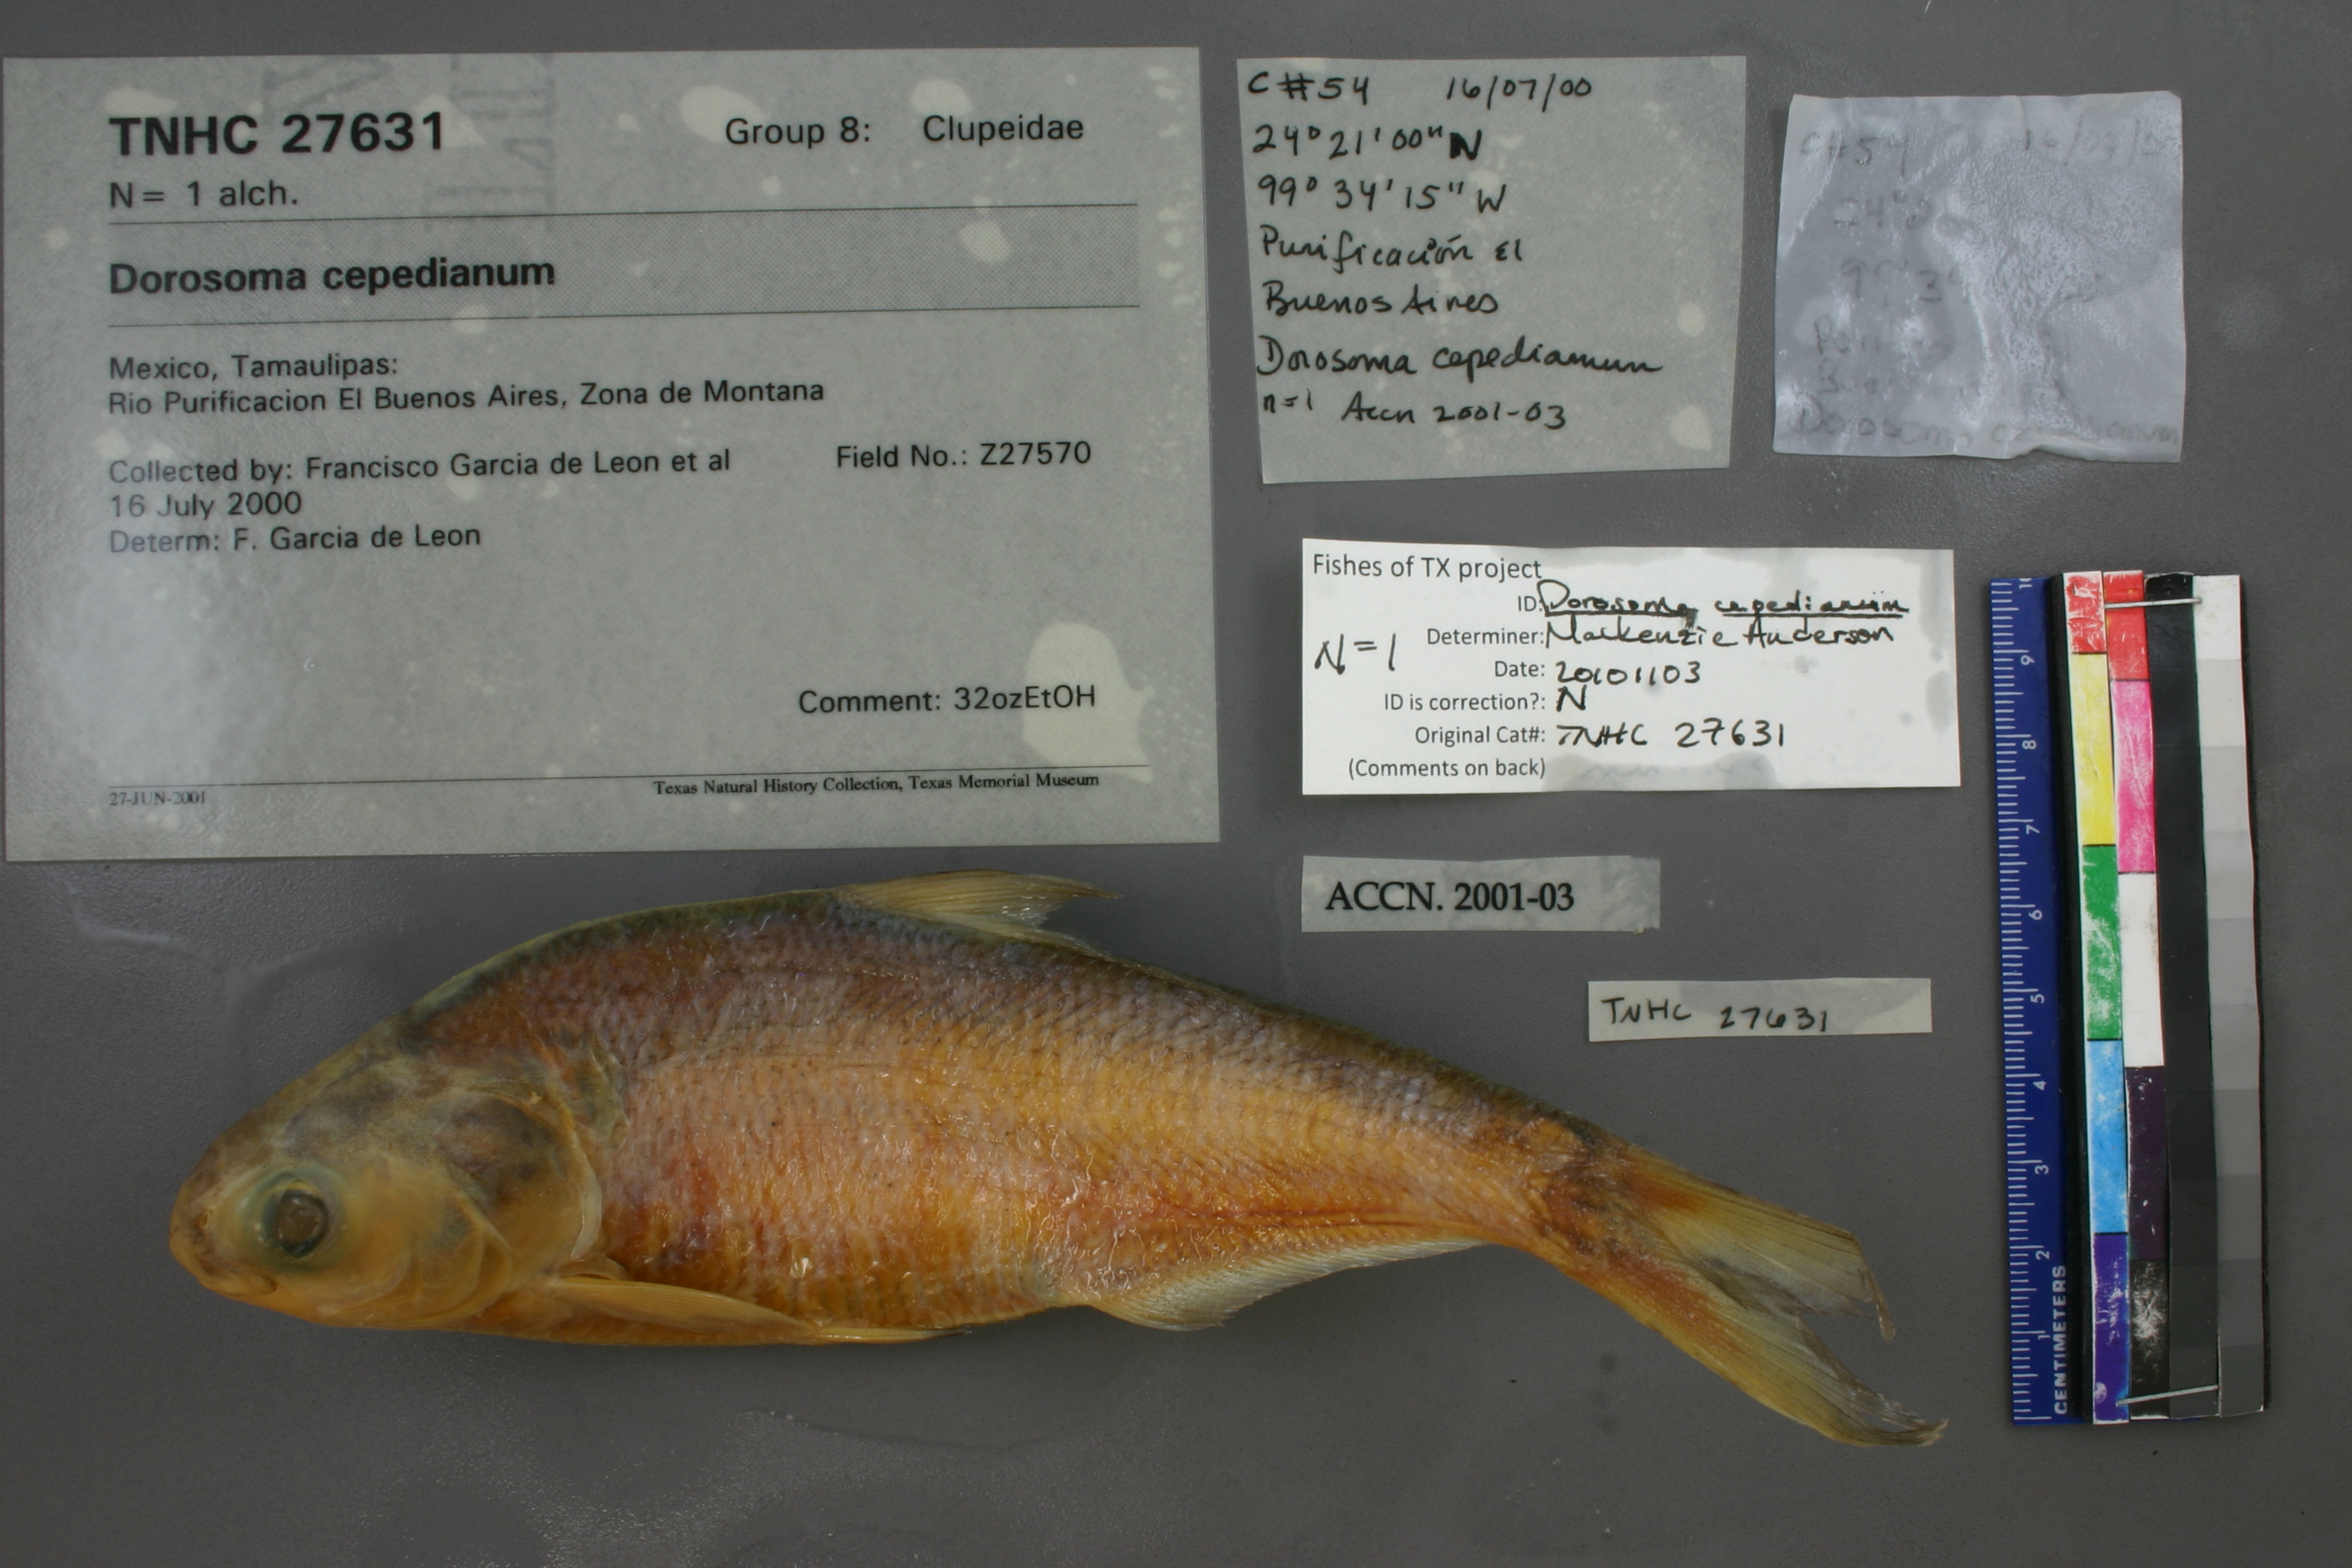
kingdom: Animalia
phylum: Chordata
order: Clupeiformes
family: Clupeidae
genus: Dorosoma
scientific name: Dorosoma cepedianum
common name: Gizzard shad
